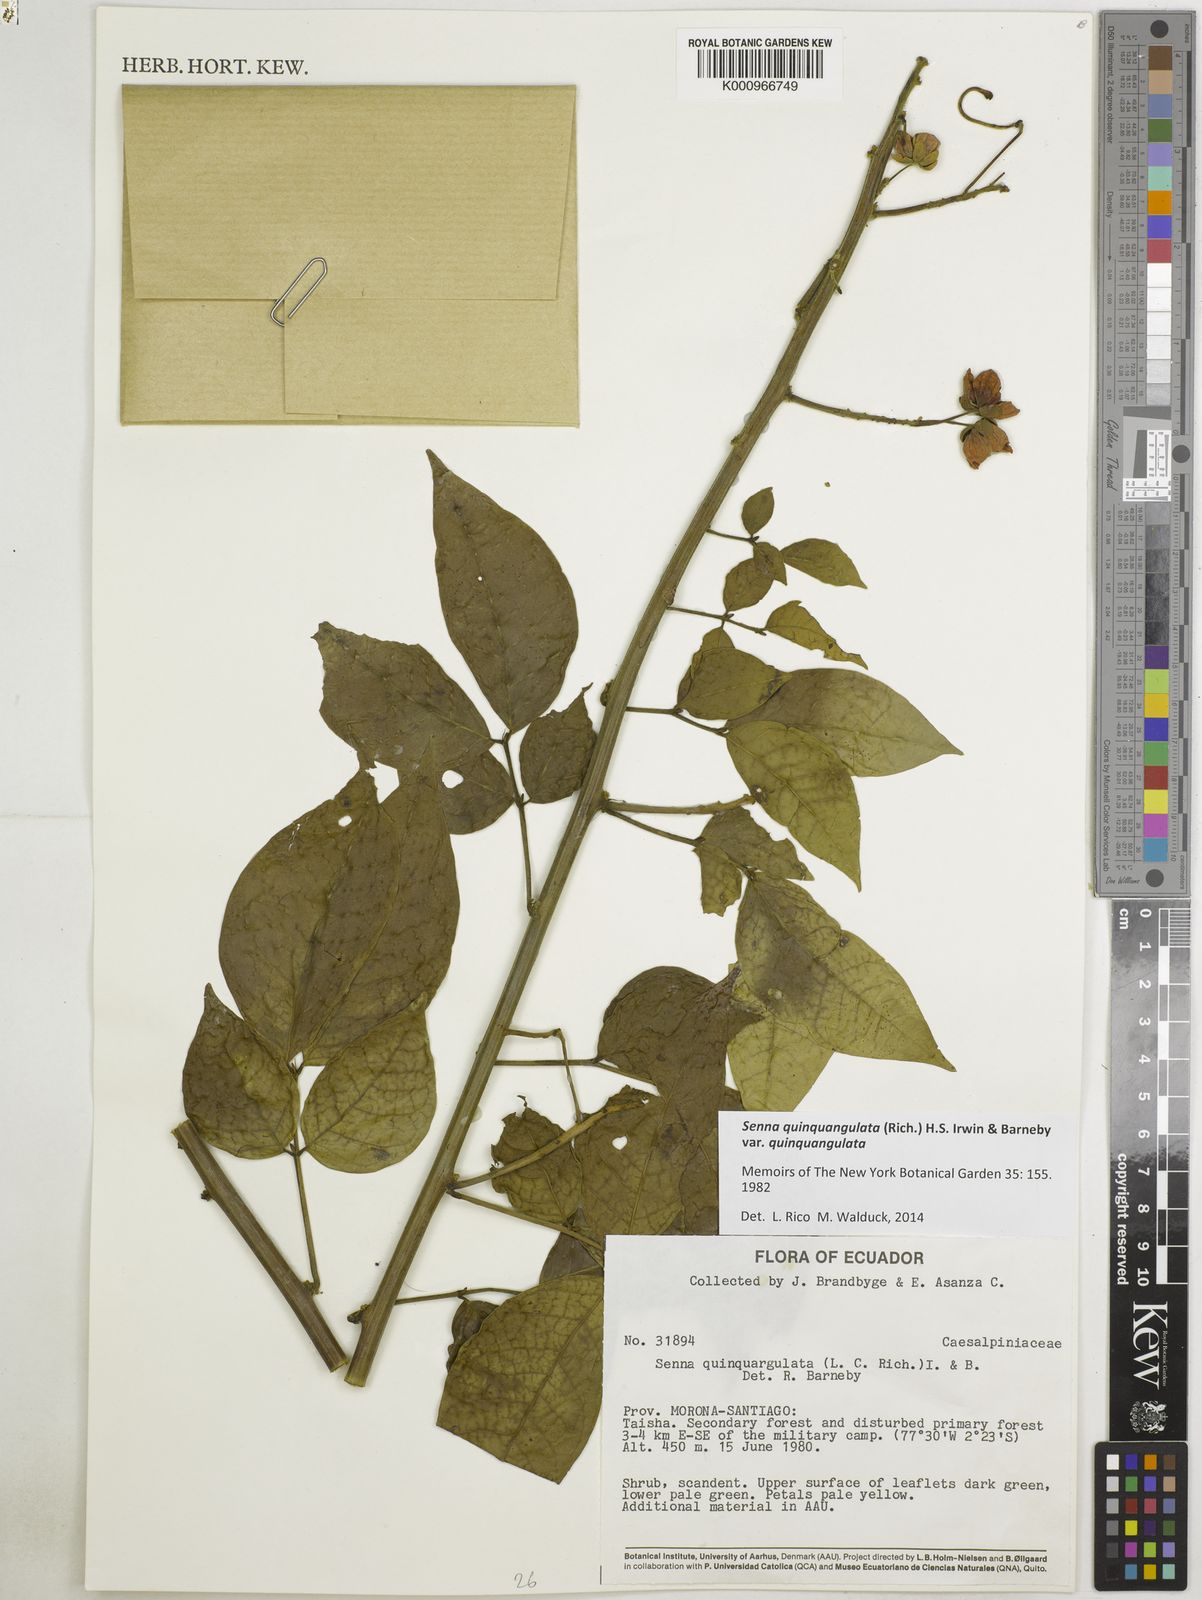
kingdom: Plantae
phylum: Tracheophyta
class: Magnoliopsida
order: Fabales
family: Fabaceae
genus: Senna
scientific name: Senna
